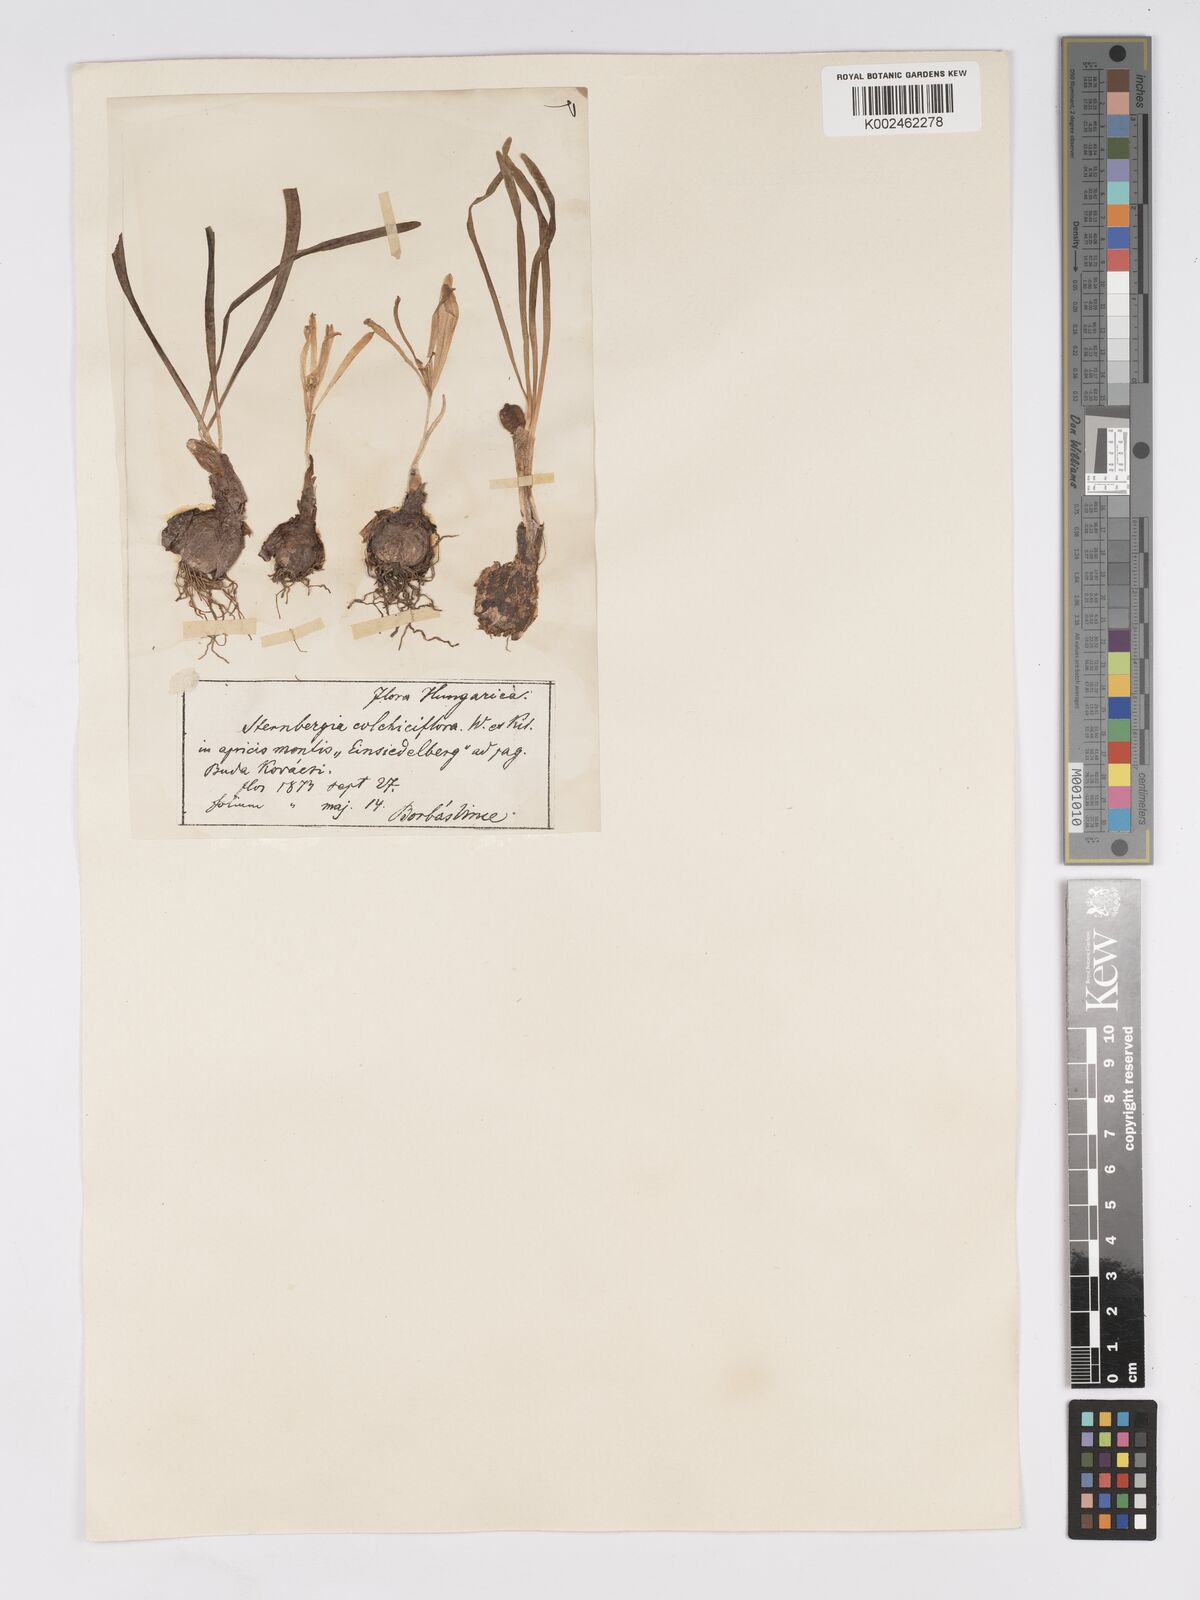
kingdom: Plantae
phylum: Tracheophyta
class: Liliopsida
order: Asparagales
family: Amaryllidaceae
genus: Sternbergia
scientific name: Sternbergia colchiciflora
